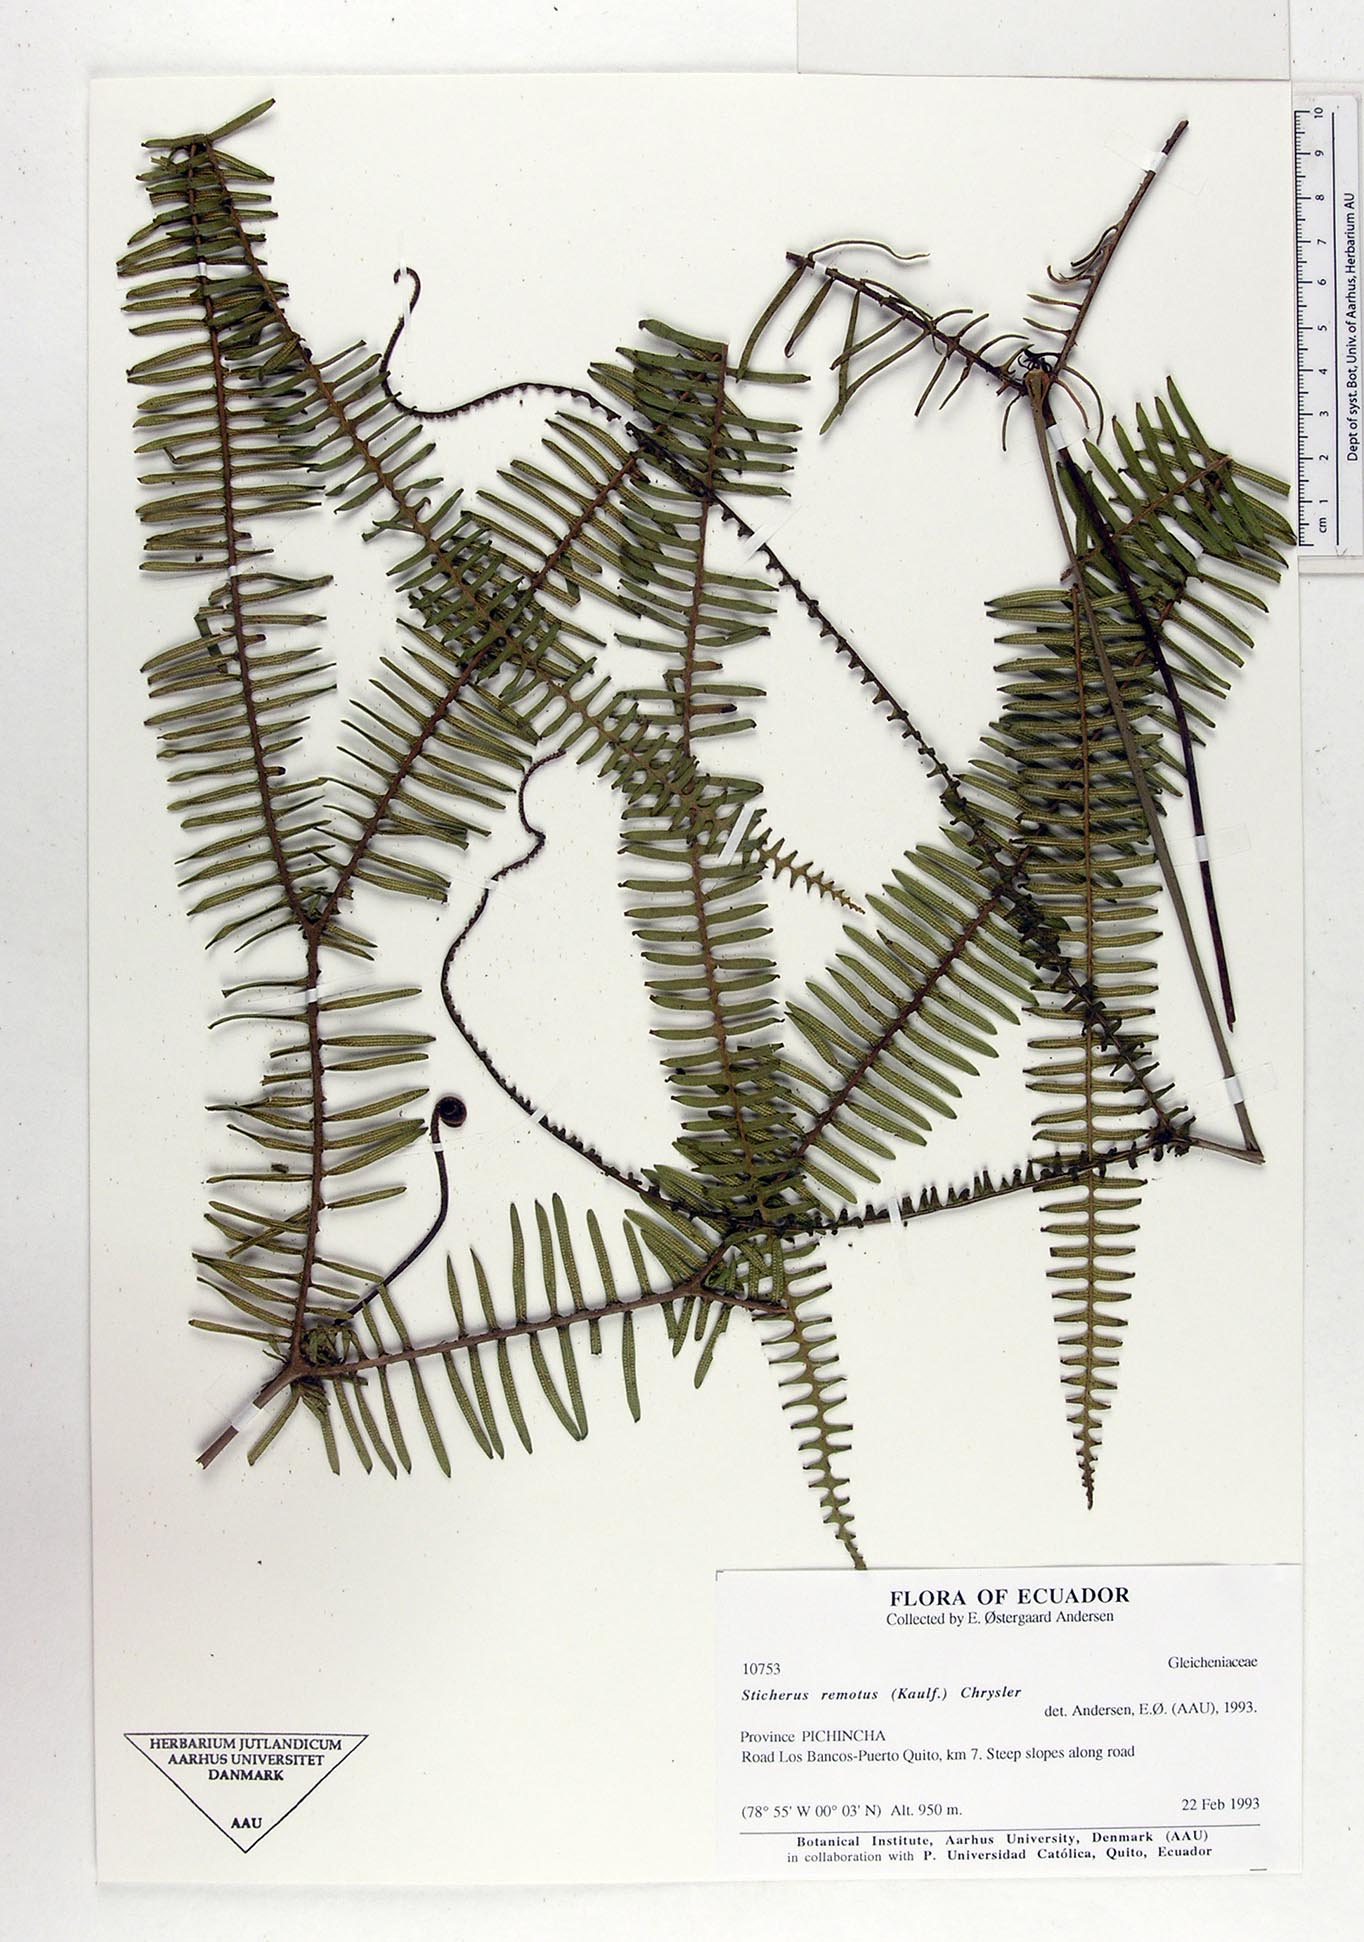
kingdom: Plantae
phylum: Tracheophyta
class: Polypodiopsida
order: Gleicheniales
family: Gleicheniaceae
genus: Sticherus
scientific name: Sticherus remotus
